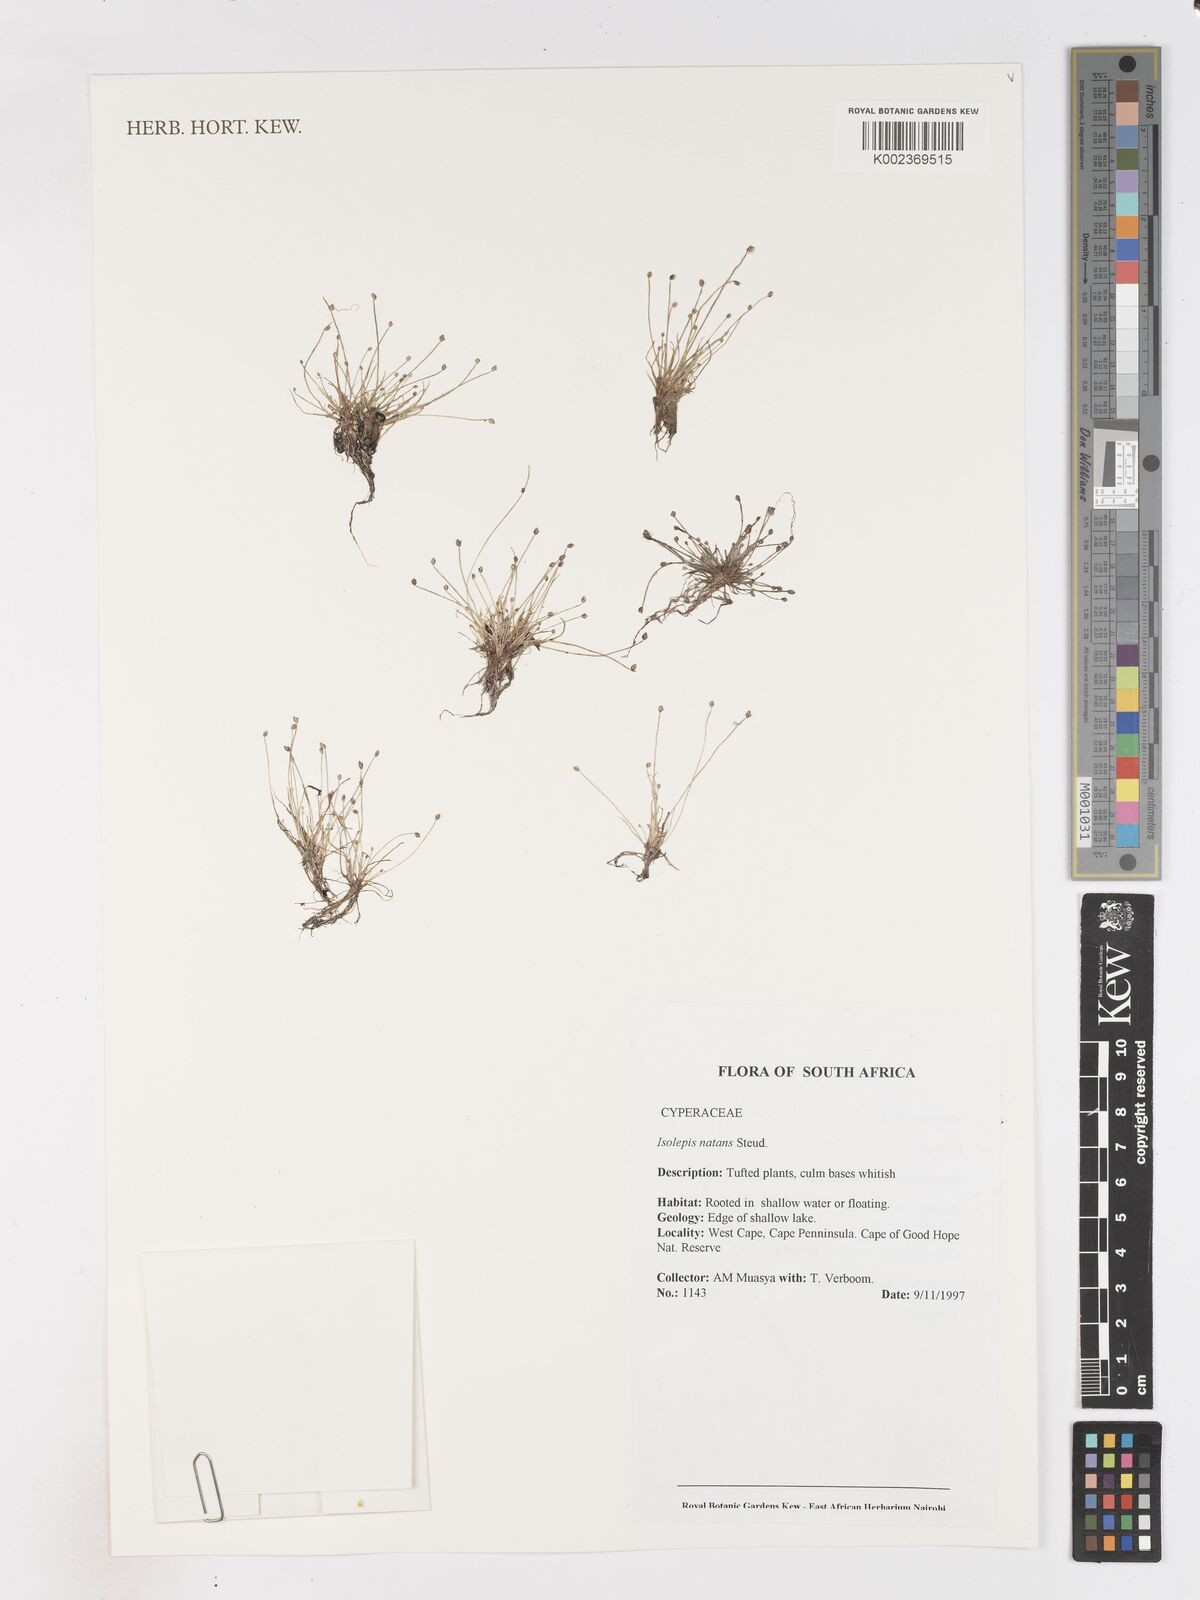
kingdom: Plantae
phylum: Tracheophyta
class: Liliopsida
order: Poales
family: Cyperaceae
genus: Isolepis
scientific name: Isolepis natans
